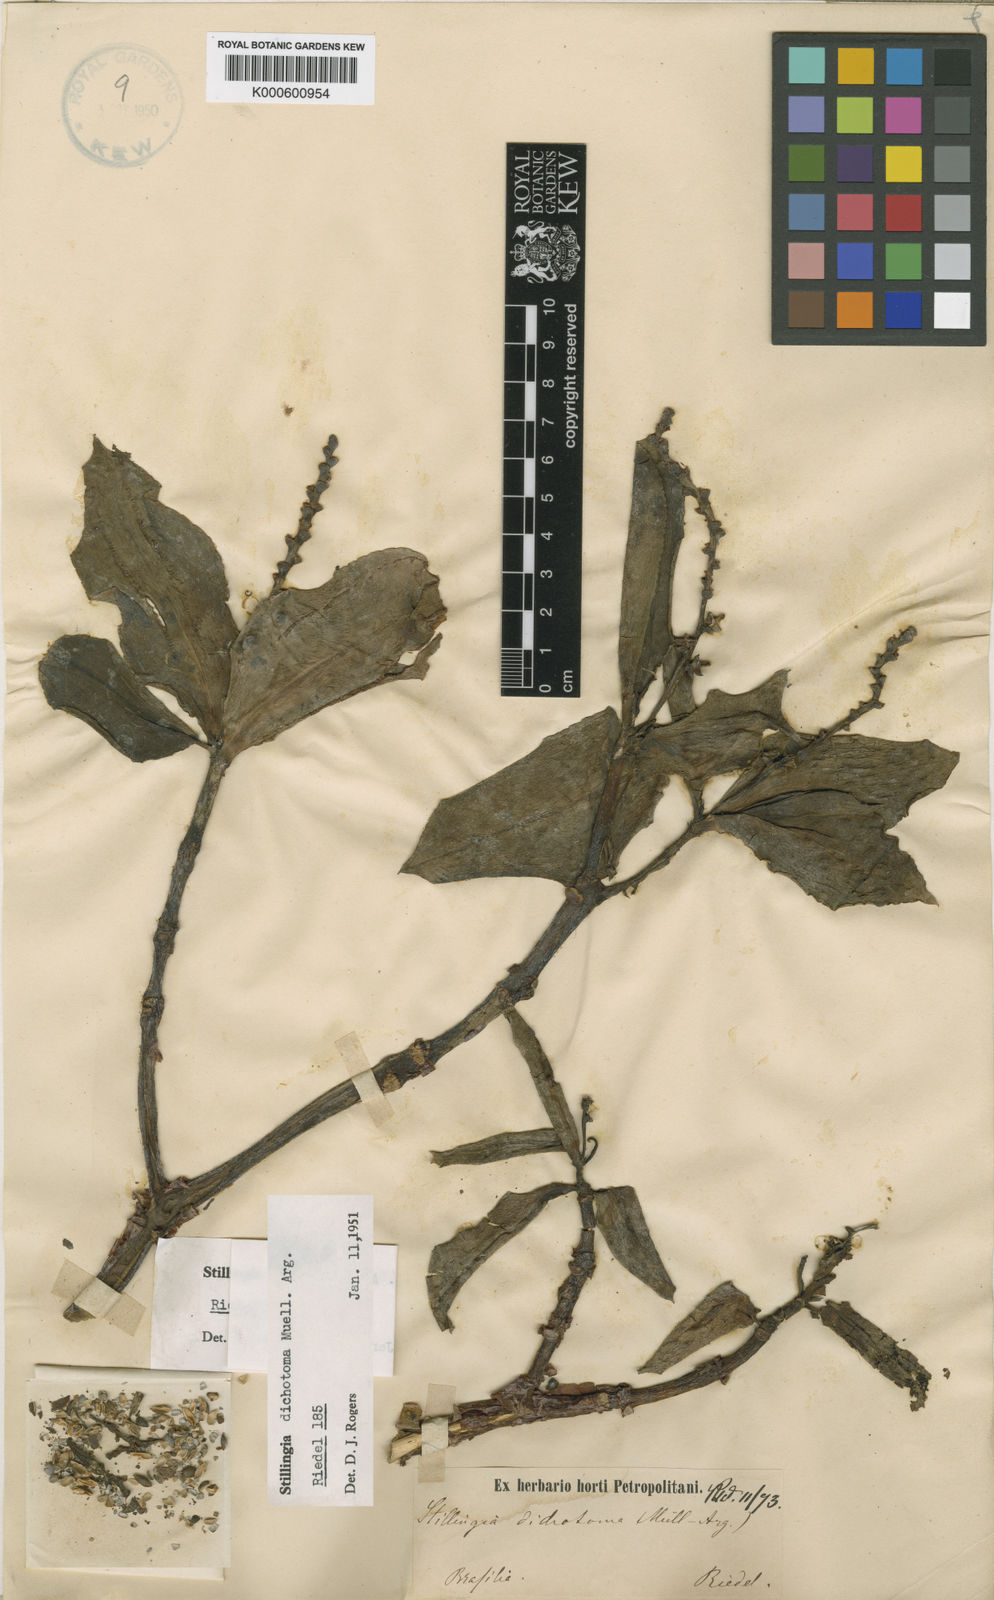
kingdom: Plantae
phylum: Tracheophyta
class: Magnoliopsida
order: Malpighiales
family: Euphorbiaceae
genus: Stillingia
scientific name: Stillingia
